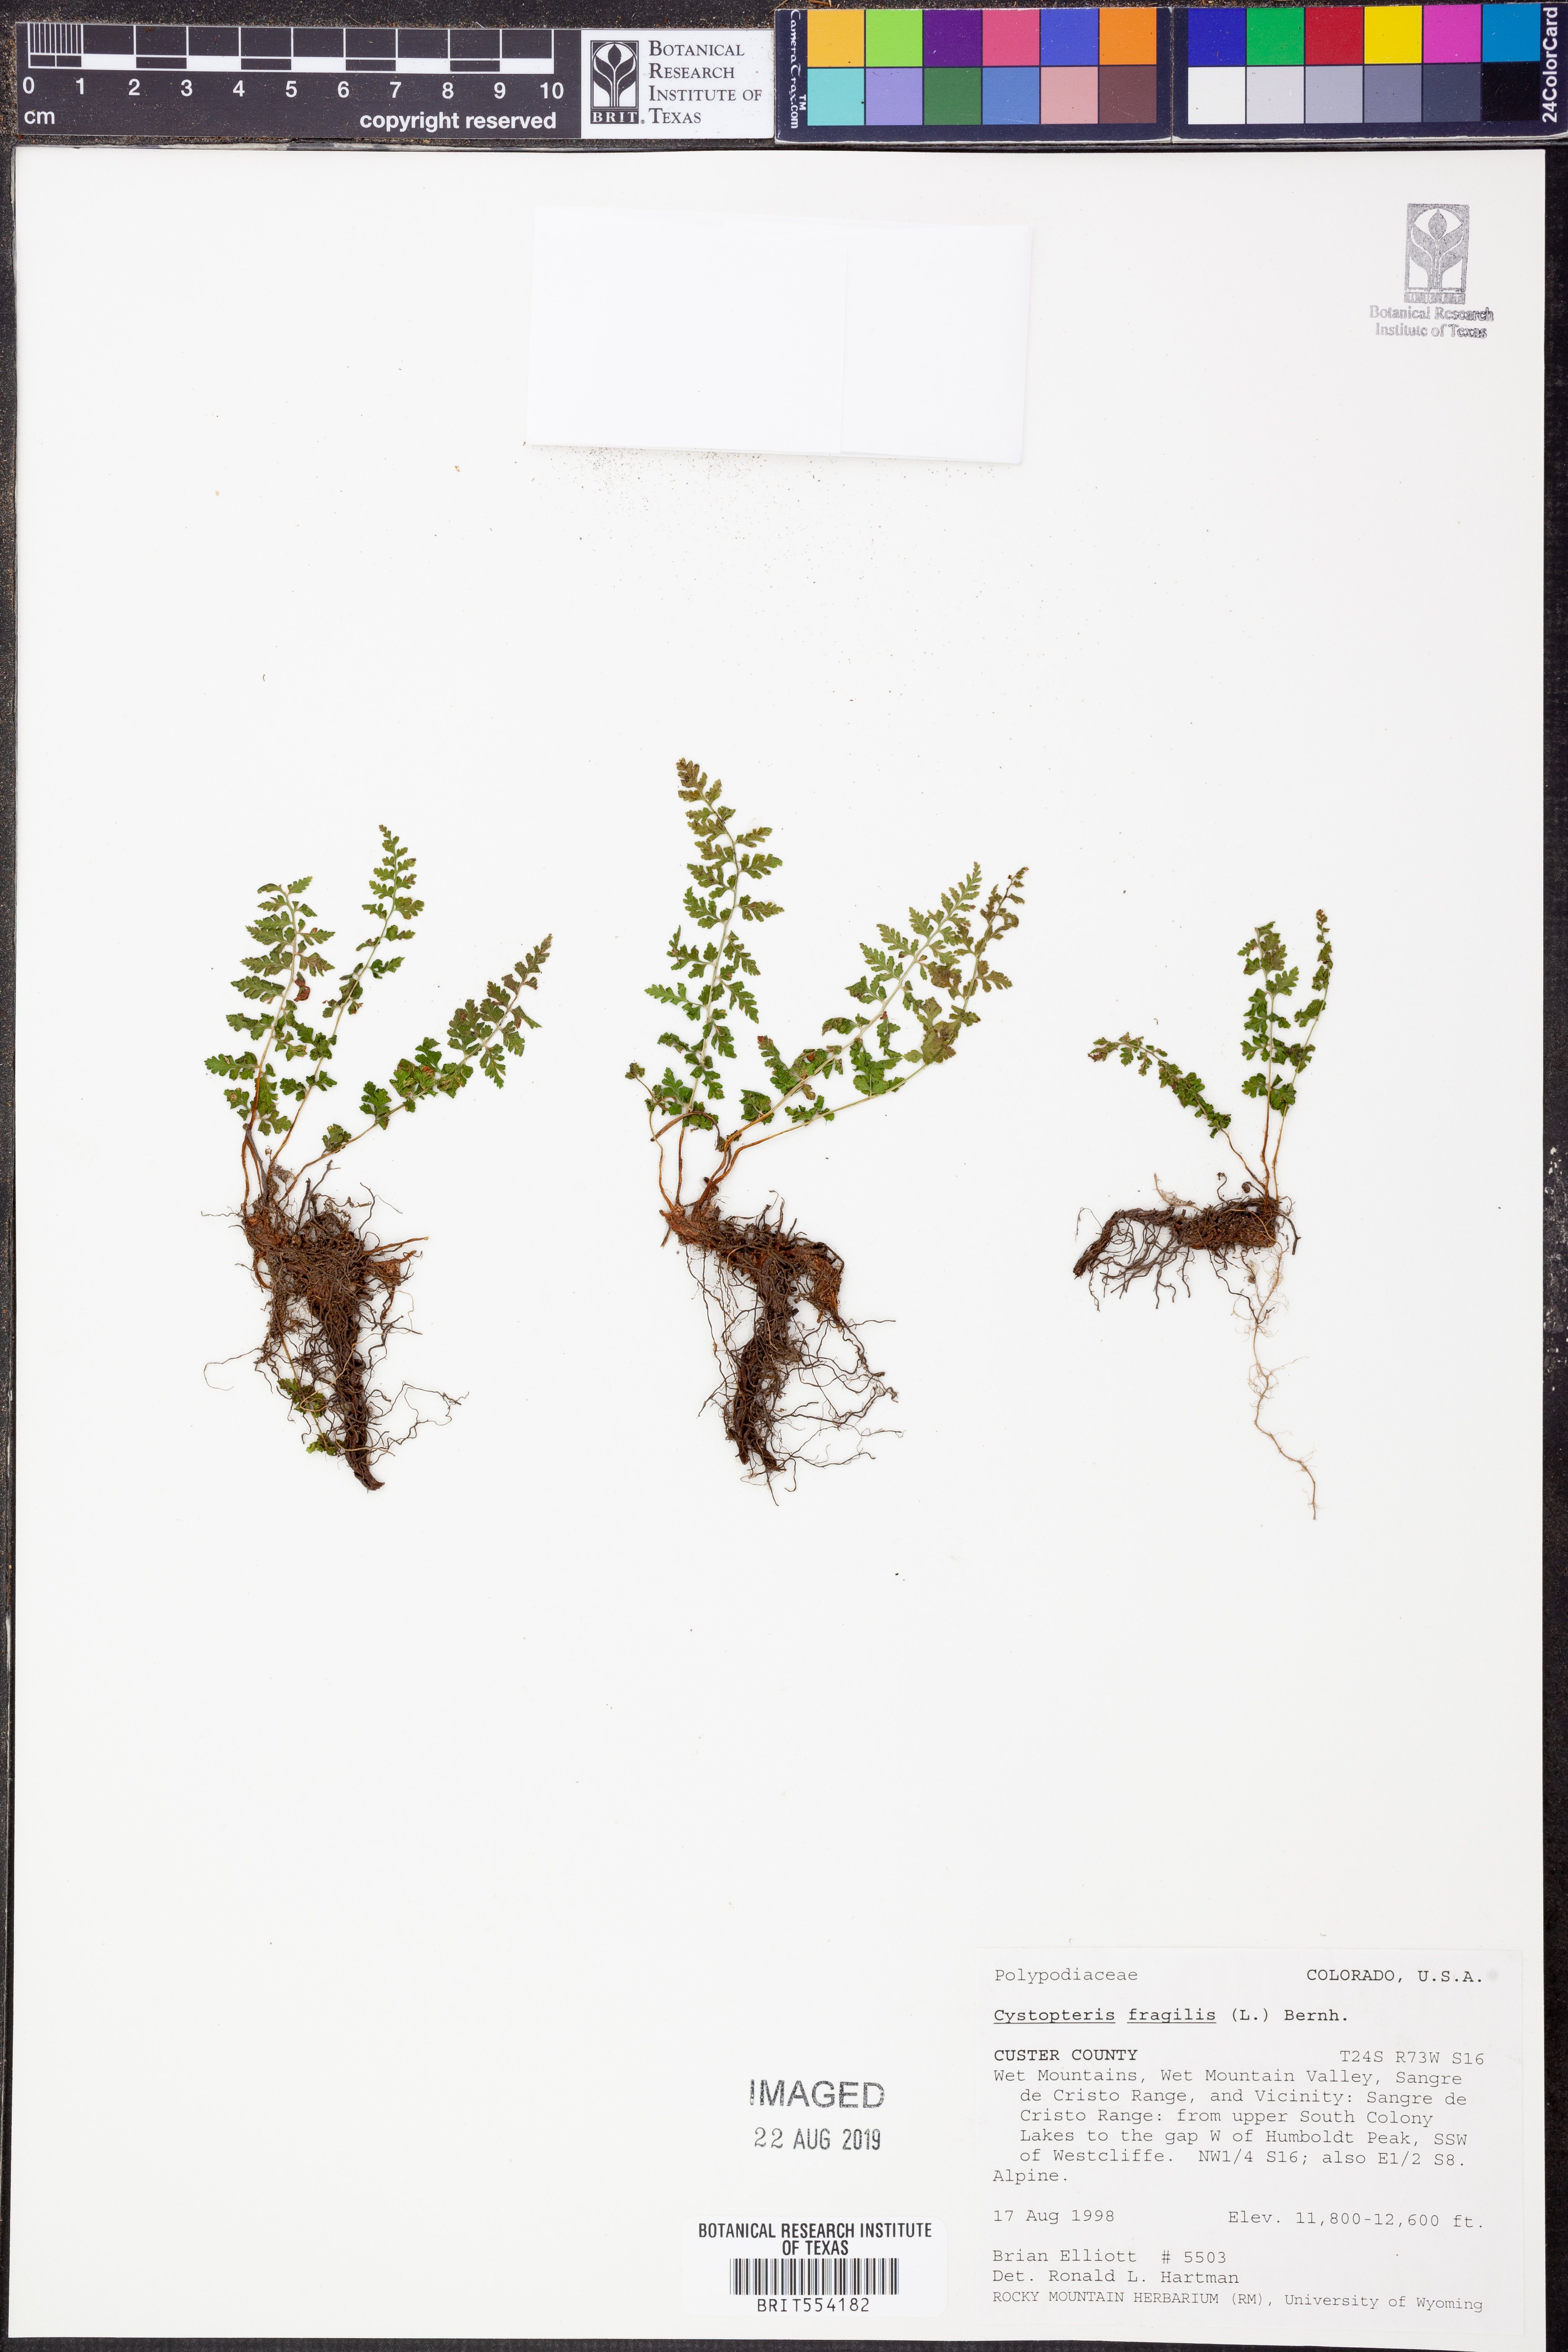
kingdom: Plantae
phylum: Tracheophyta
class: Polypodiopsida
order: Polypodiales
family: Cystopteridaceae
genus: Cystopteris
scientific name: Cystopteris fragilis
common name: Brittle bladder fern
